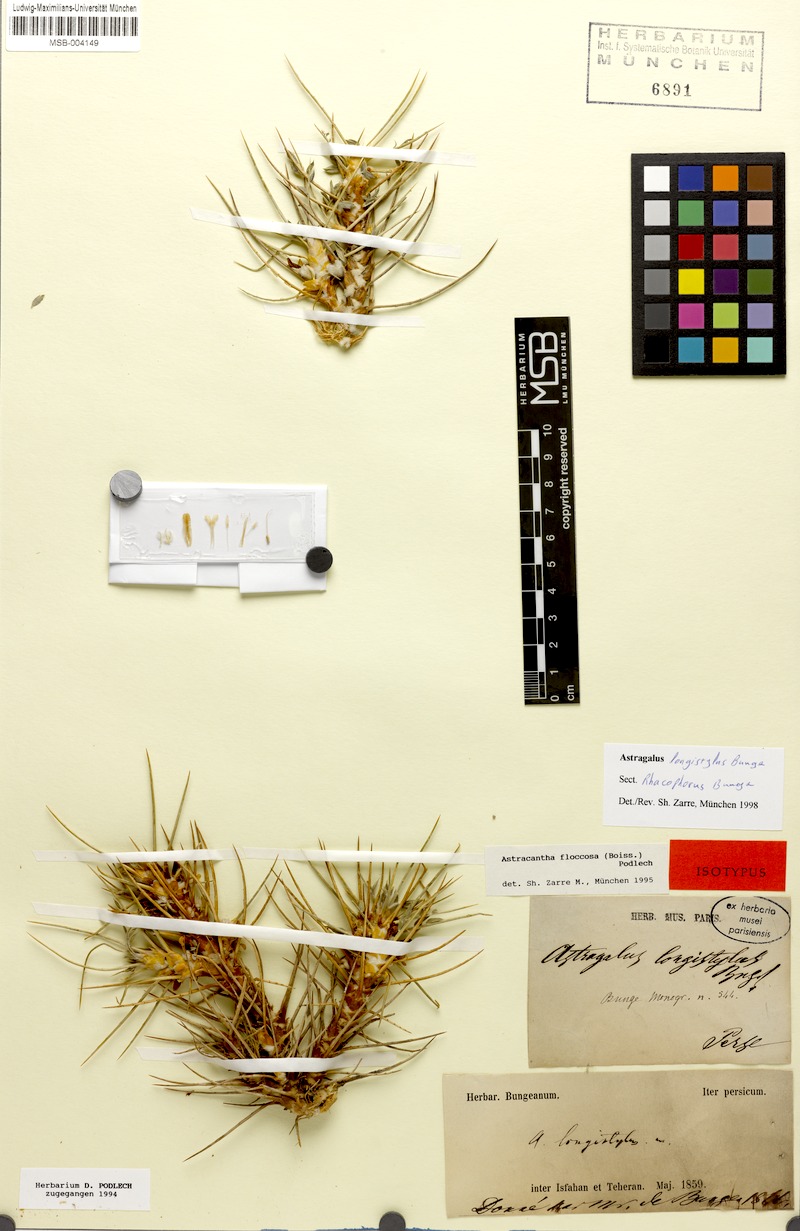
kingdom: Plantae
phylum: Tracheophyta
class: Magnoliopsida
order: Fabales
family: Fabaceae
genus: Astragalus
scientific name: Astragalus longistylus
